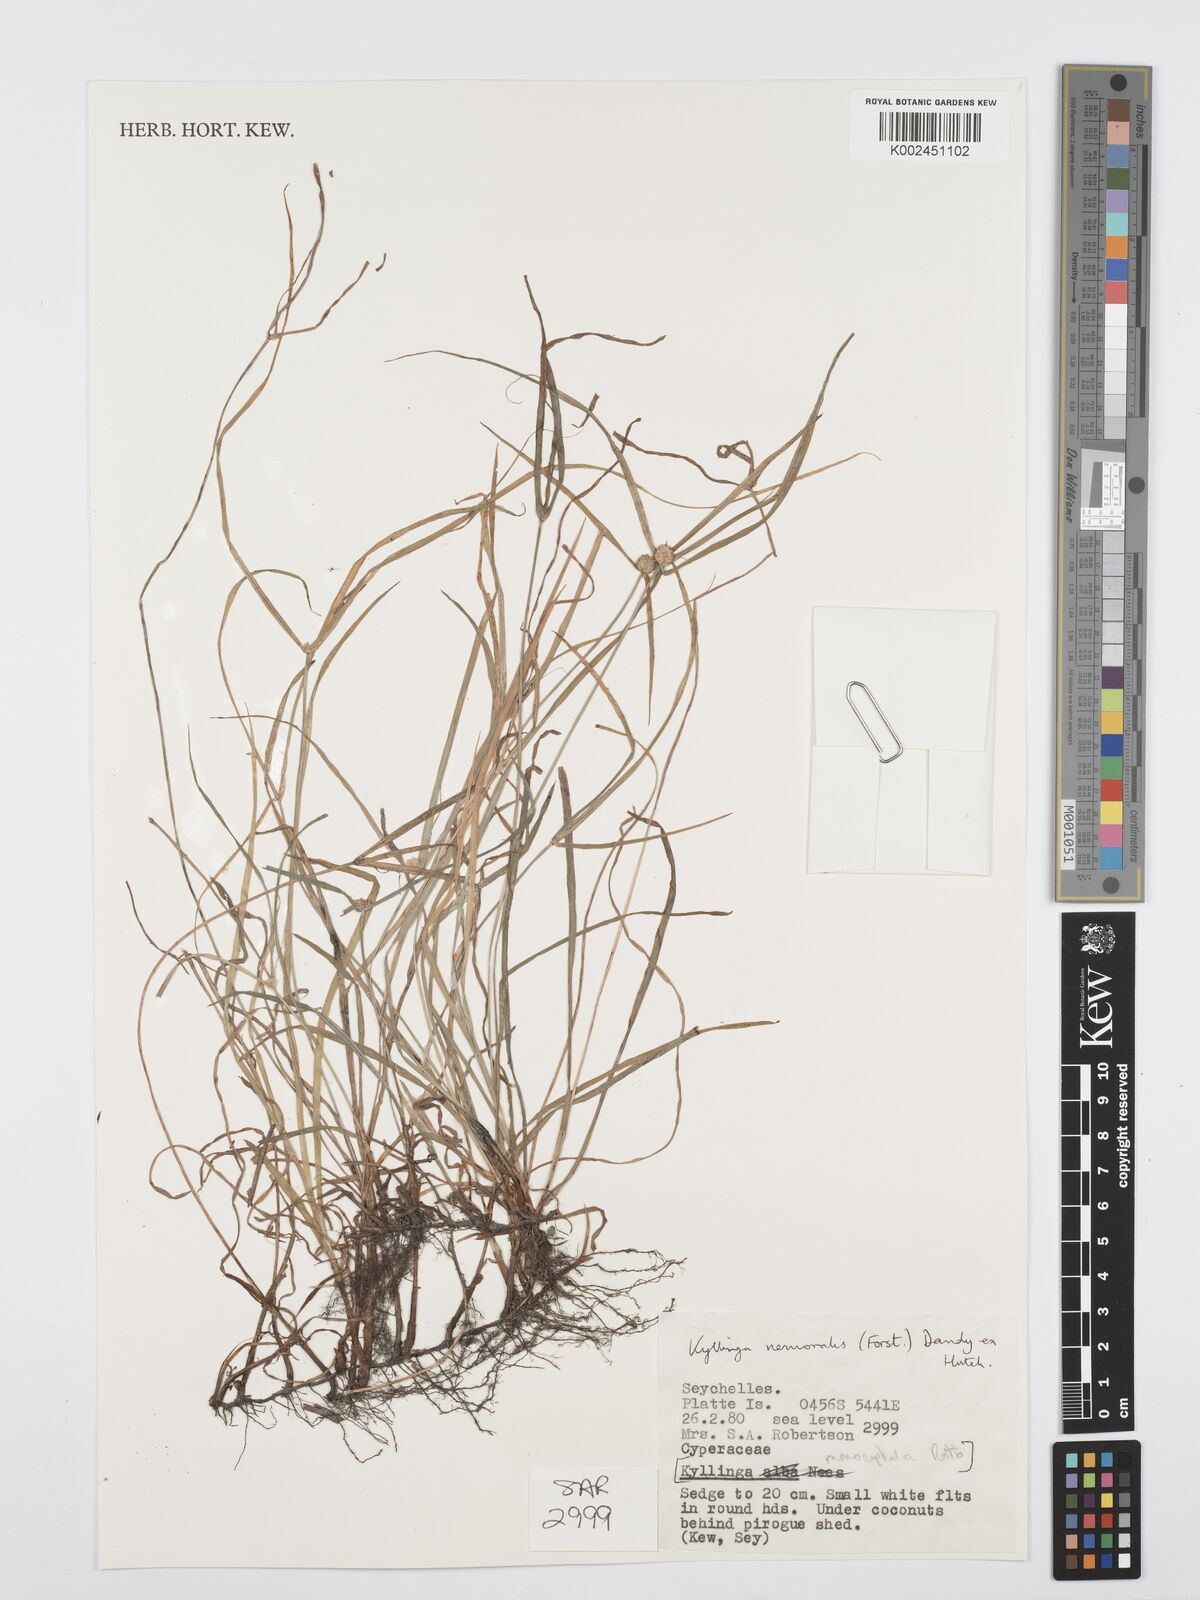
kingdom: Plantae
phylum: Tracheophyta
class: Liliopsida
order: Poales
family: Cyperaceae
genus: Cyperus
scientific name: Cyperus nemoralis
